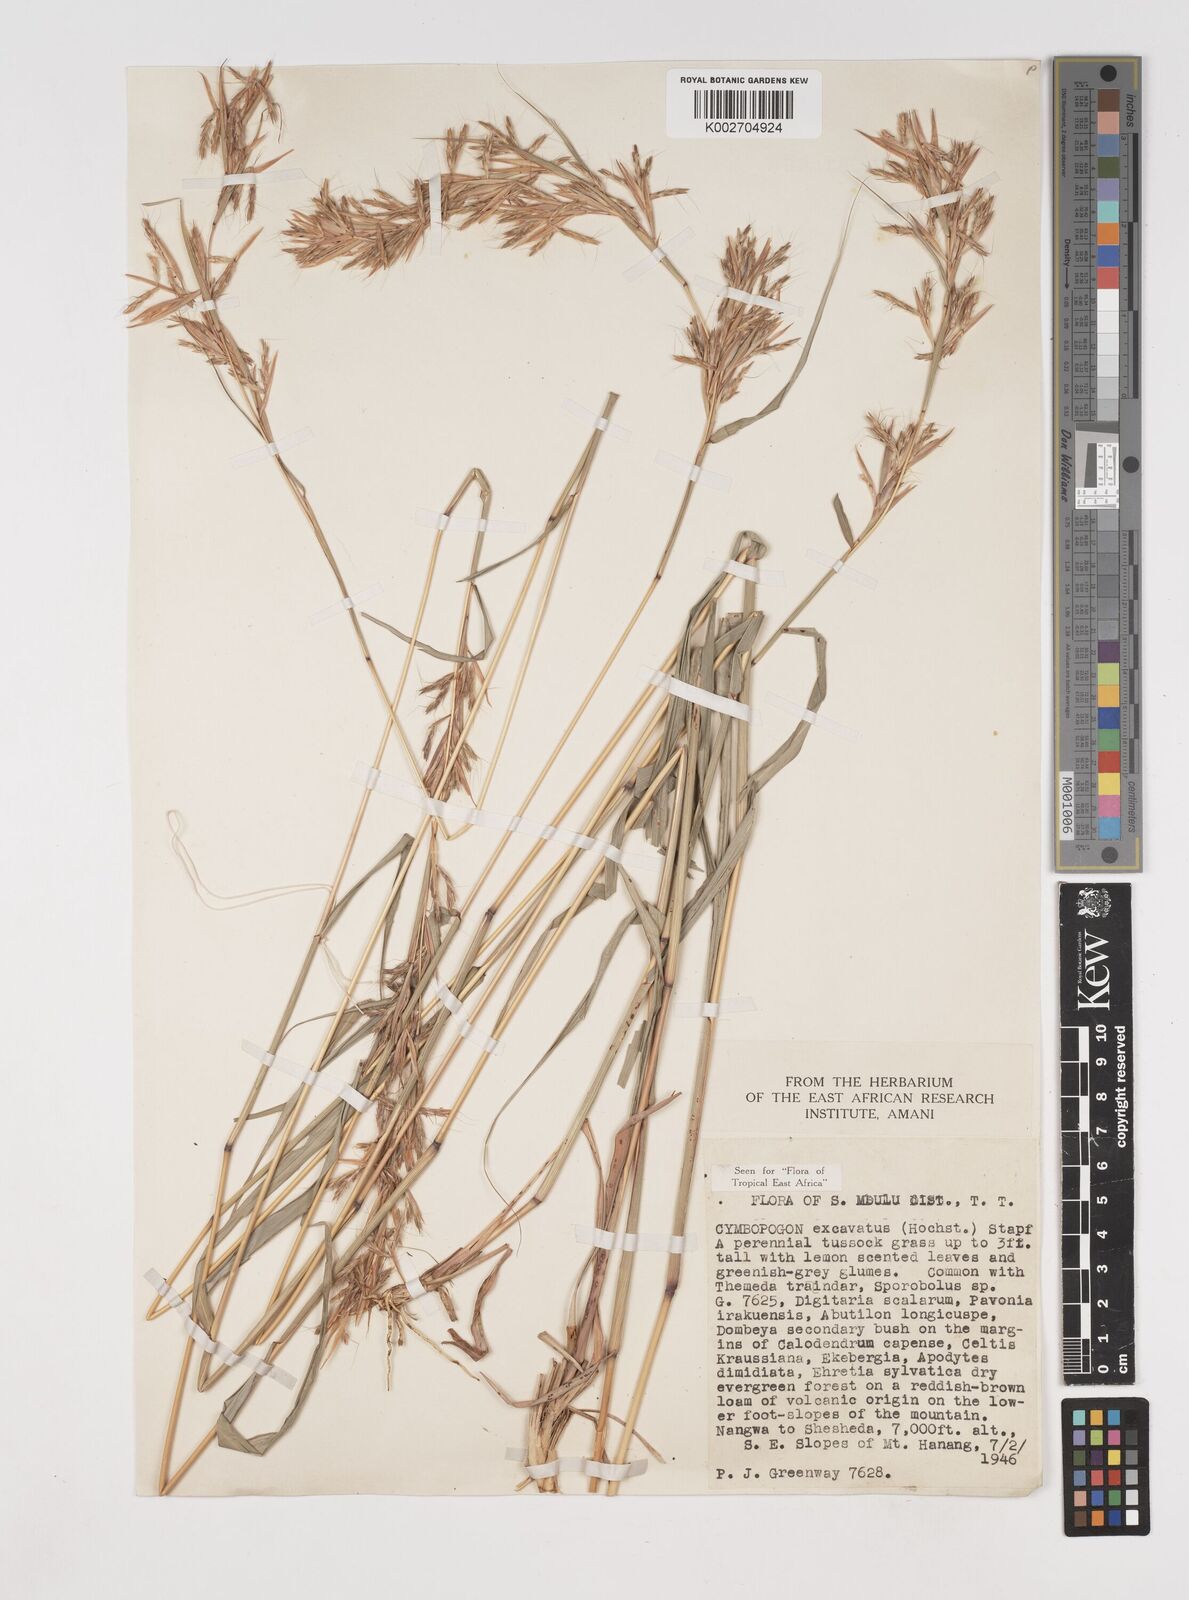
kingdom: Plantae
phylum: Tracheophyta
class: Liliopsida
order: Poales
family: Poaceae
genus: Cymbopogon
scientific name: Cymbopogon caesius
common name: Kachi grass
